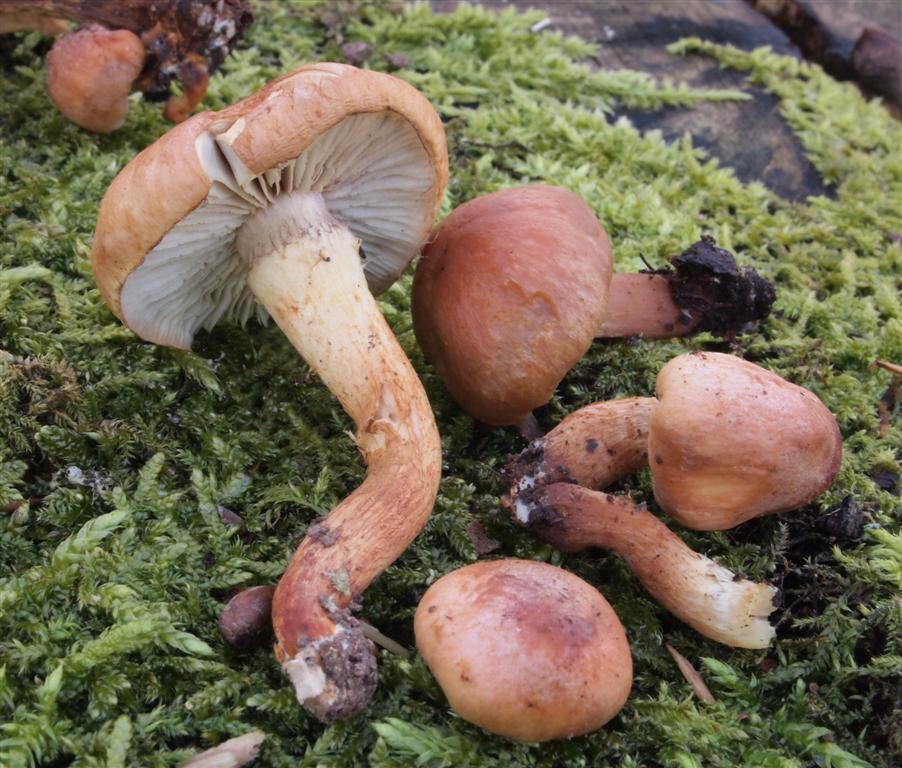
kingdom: Fungi
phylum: Basidiomycota
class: Agaricomycetes
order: Agaricales
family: Strophariaceae
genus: Hypholoma
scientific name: Hypholoma lateritium
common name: teglrød svovlhat
